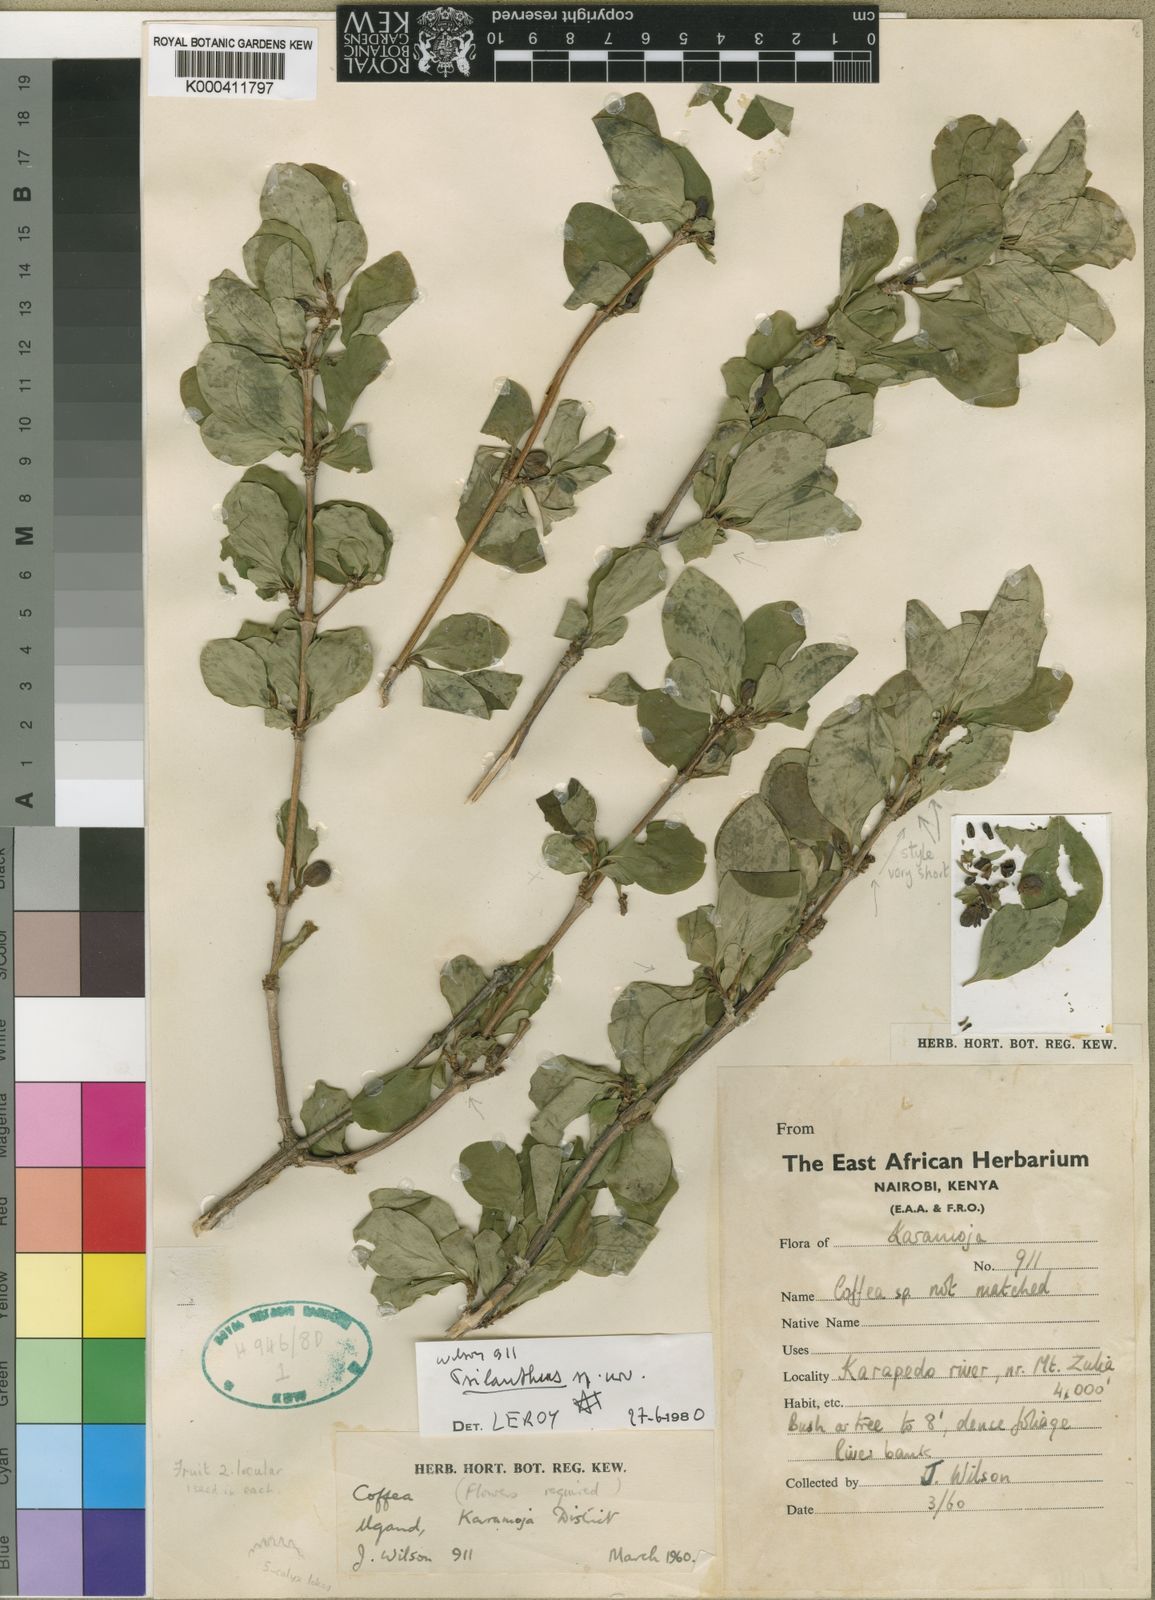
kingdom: Plantae
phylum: Tracheophyta
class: Magnoliopsida
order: Gentianales
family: Rubiaceae
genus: Coffea
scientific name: Coffea neoleroyi
